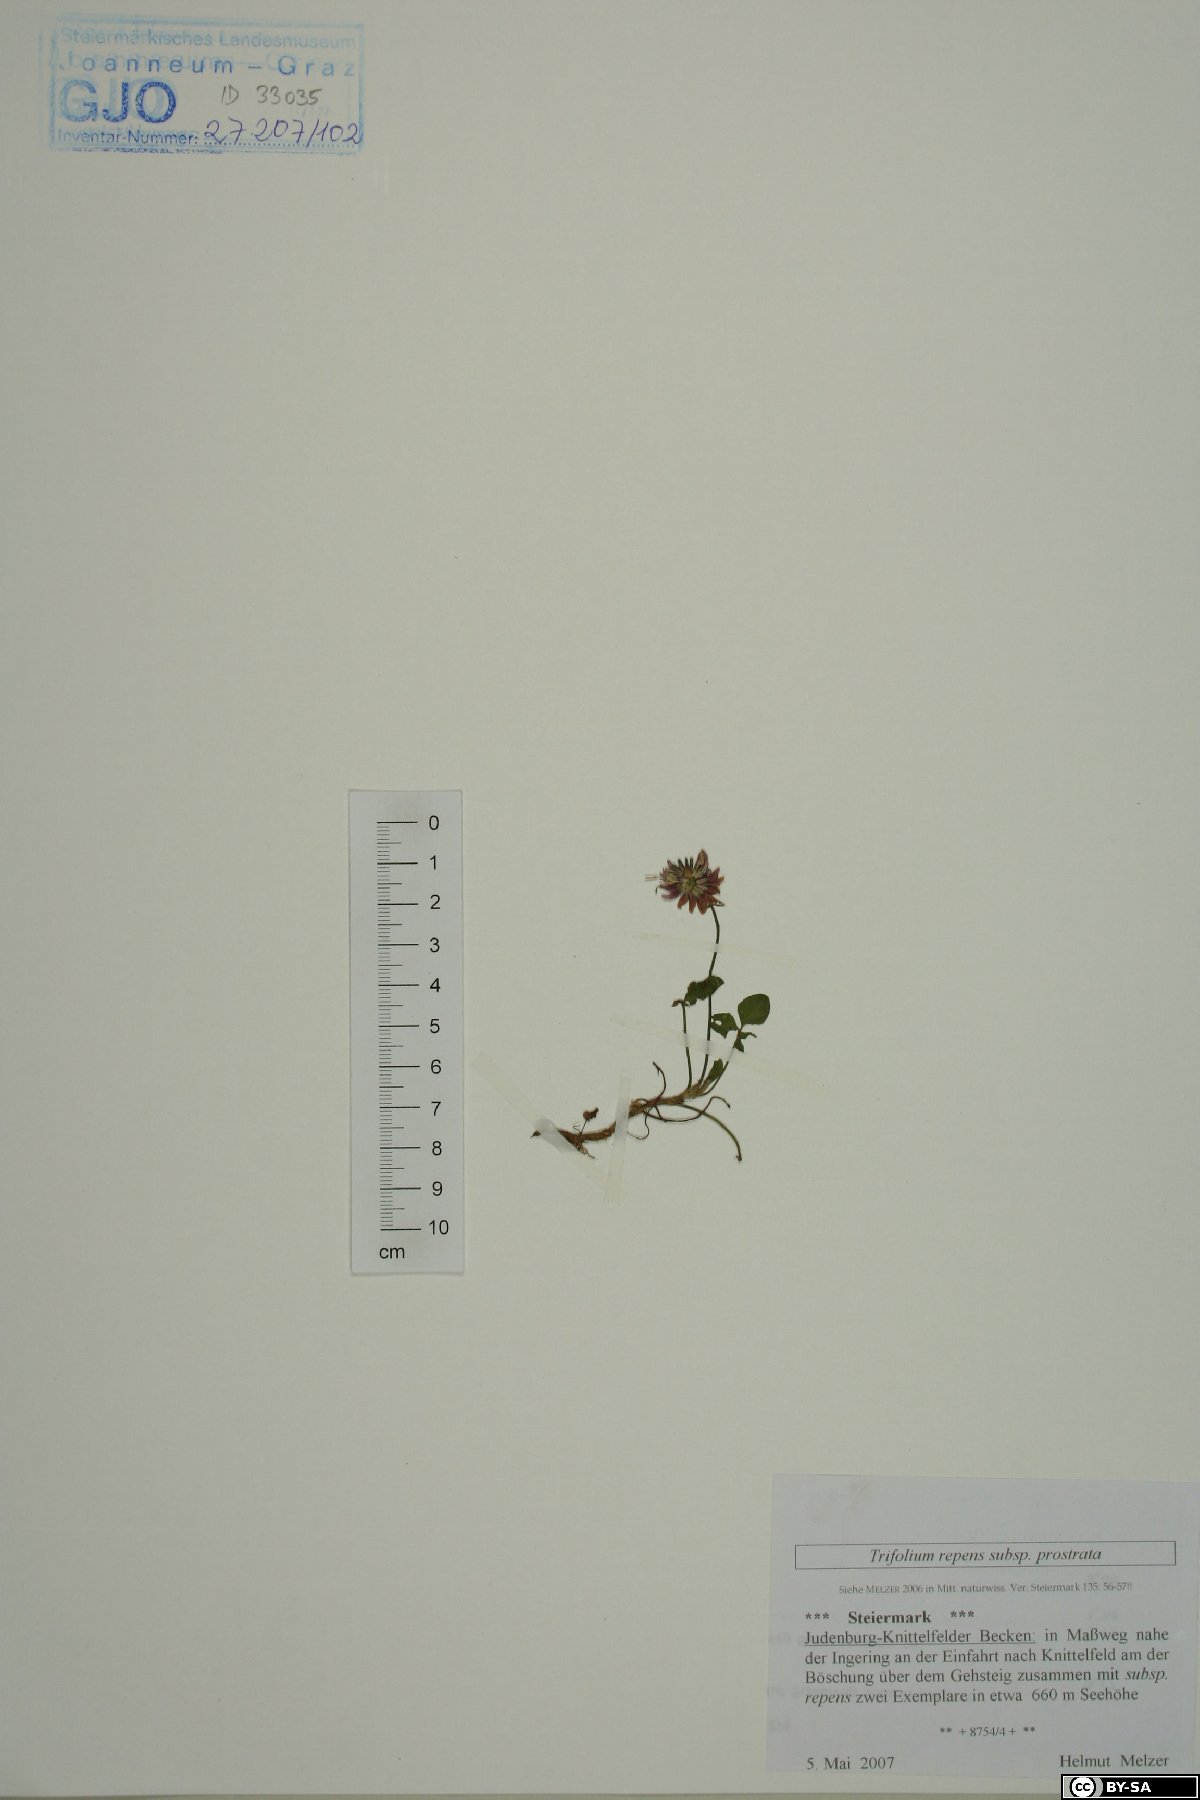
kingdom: Plantae
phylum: Tracheophyta
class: Magnoliopsida
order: Fabales
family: Fabaceae
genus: Trifolium
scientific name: Trifolium repens
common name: White clover
